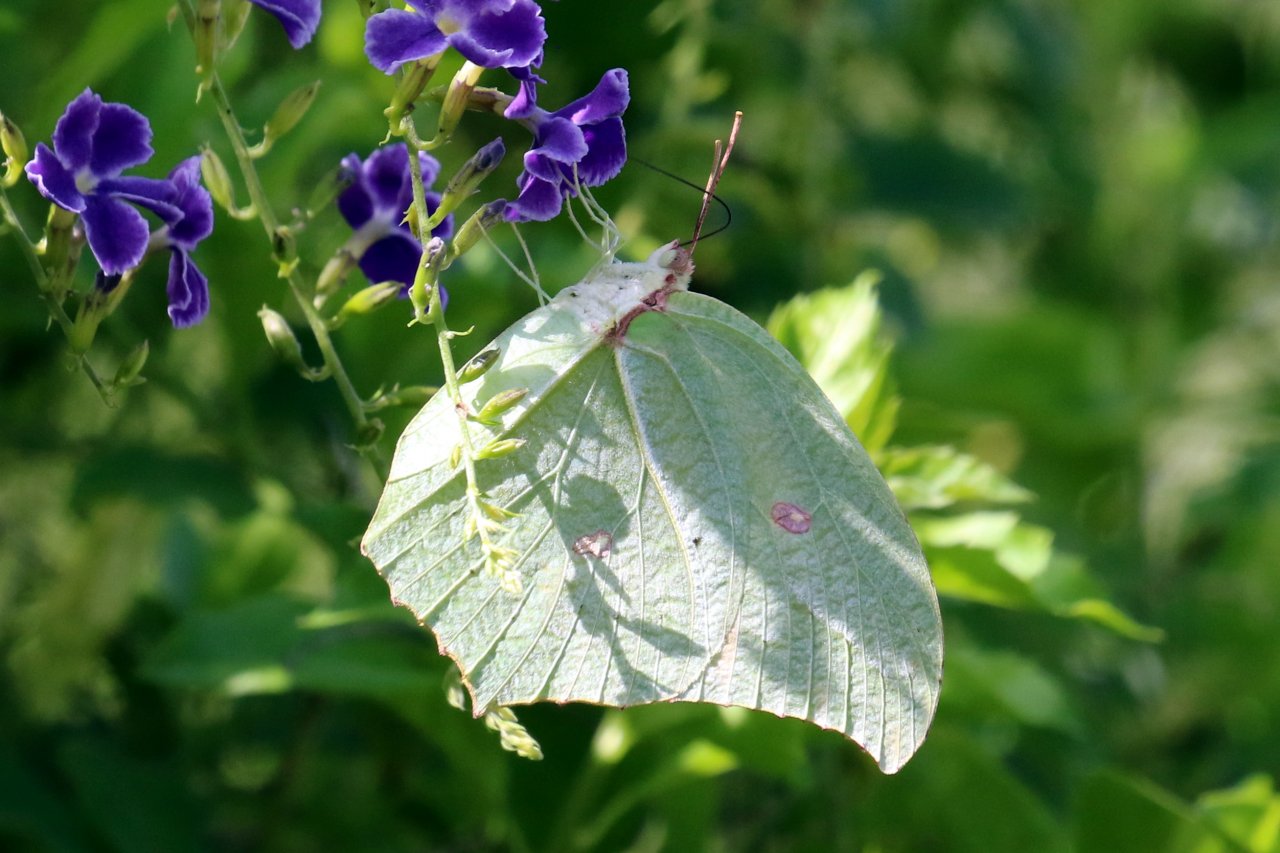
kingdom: Animalia
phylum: Arthropoda
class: Insecta
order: Lepidoptera
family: Pieridae
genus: Anteos
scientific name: Anteos maerula
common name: Yellow Angled-Sulphur
